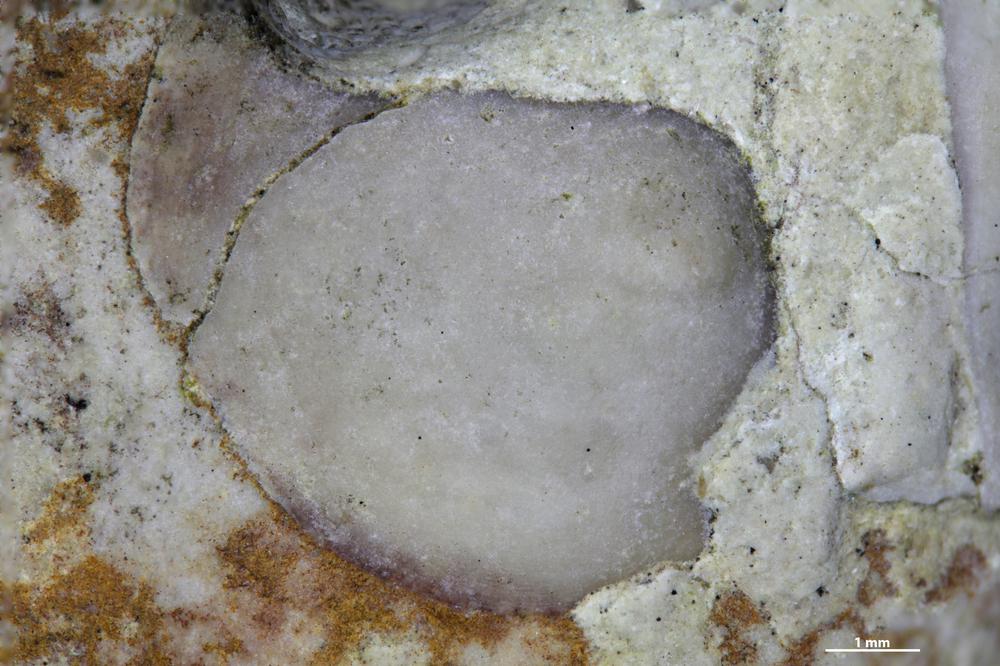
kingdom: Animalia
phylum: Brachiopoda
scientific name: Brachiopoda
